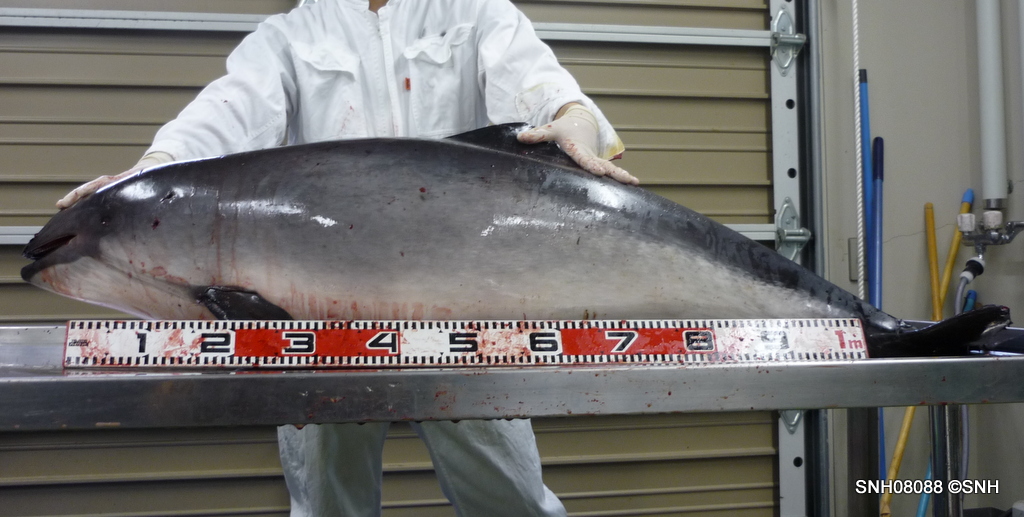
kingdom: Animalia
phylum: Chordata
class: Mammalia
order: Cetacea
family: Phocoenidae
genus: Phocoena
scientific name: Phocoena phocoena
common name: Harbour porpoise
